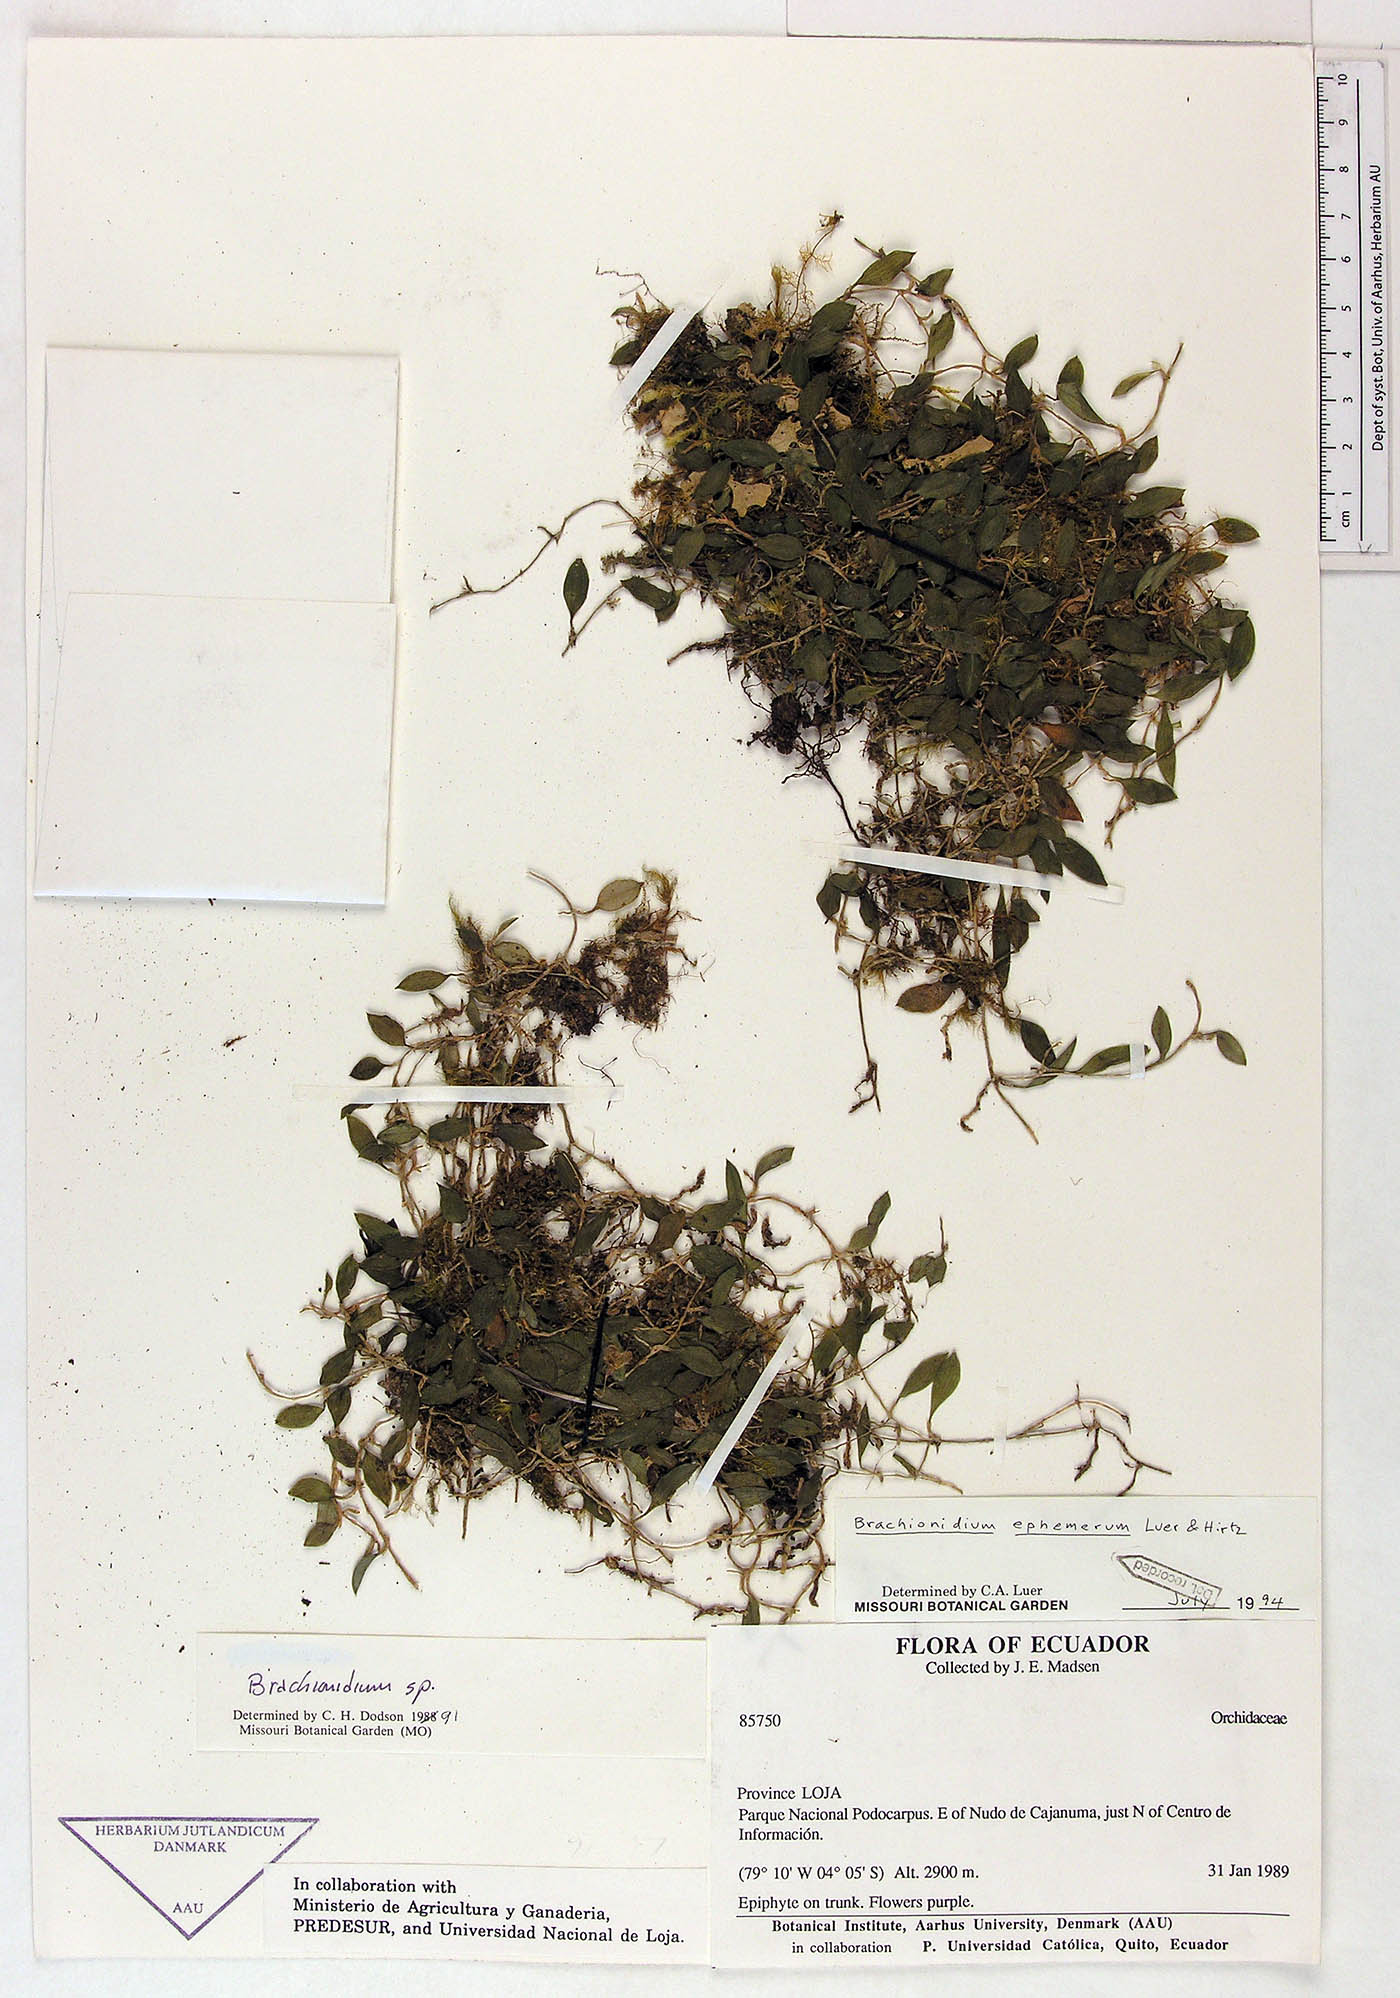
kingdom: Plantae
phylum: Tracheophyta
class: Liliopsida
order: Asparagales
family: Orchidaceae
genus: Brachionidium
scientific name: Brachionidium ephemerum
